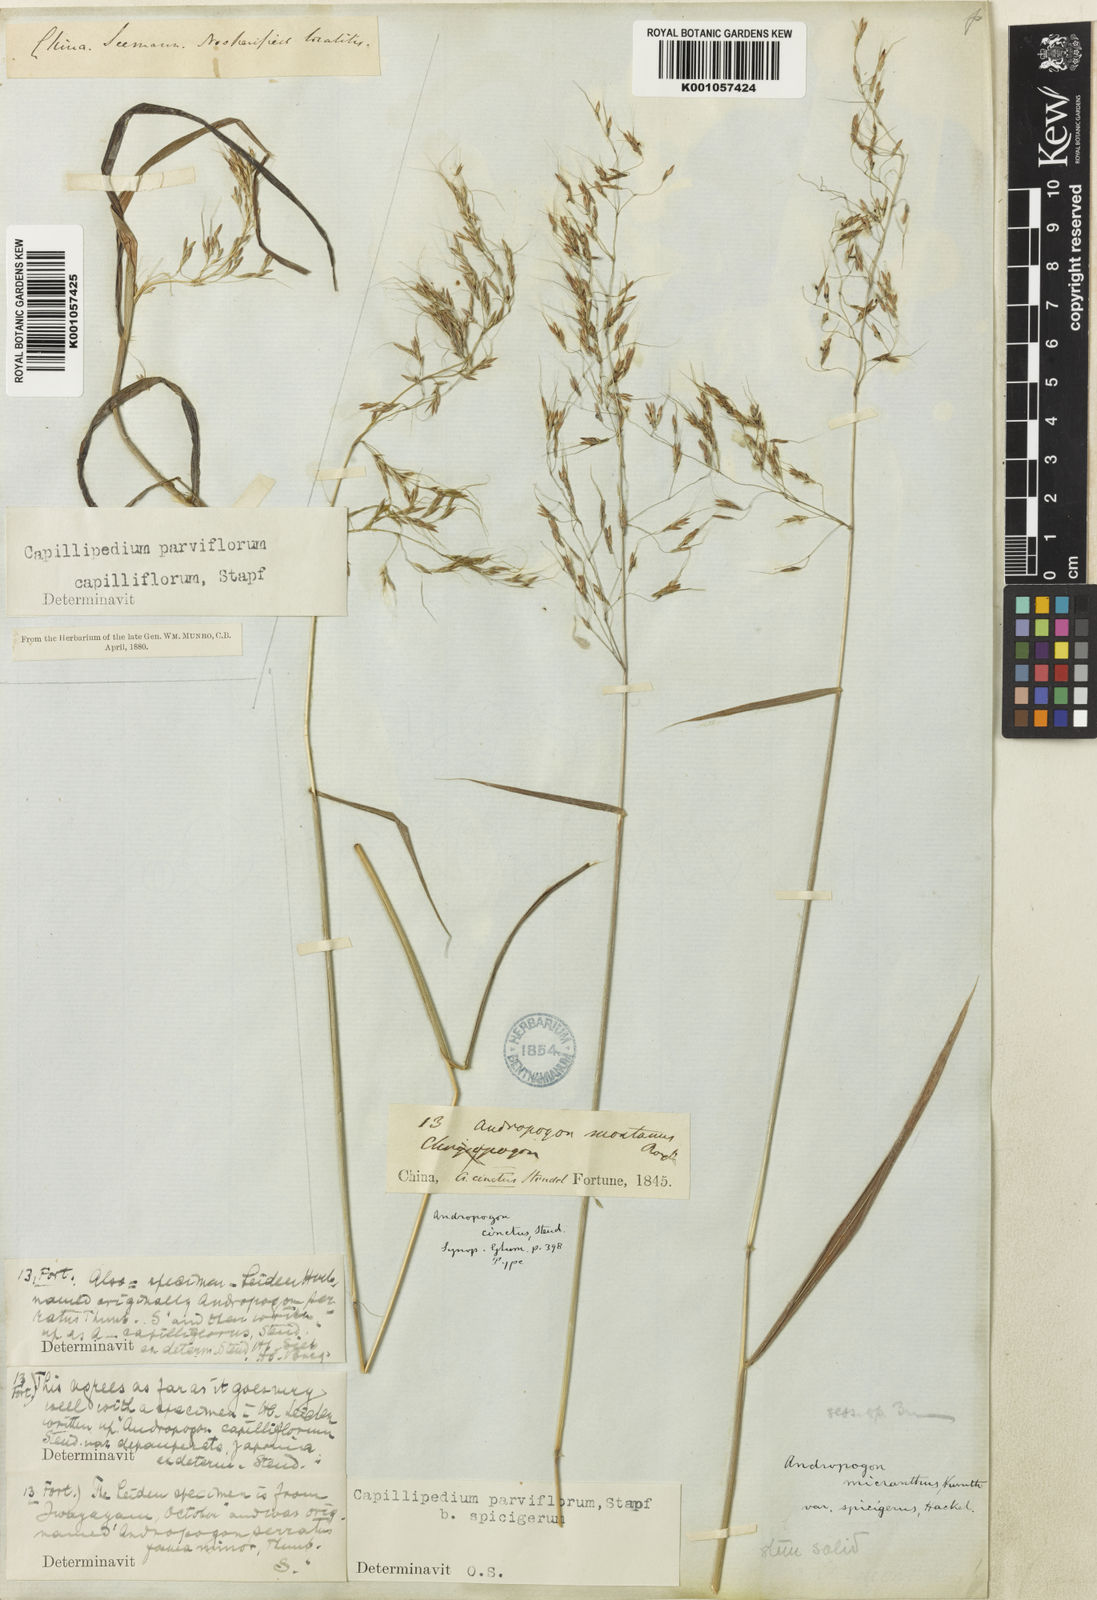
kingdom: Plantae
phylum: Tracheophyta
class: Liliopsida
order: Poales
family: Poaceae
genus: Capillipedium
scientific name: Capillipedium parviflorum
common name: Golden-beard
